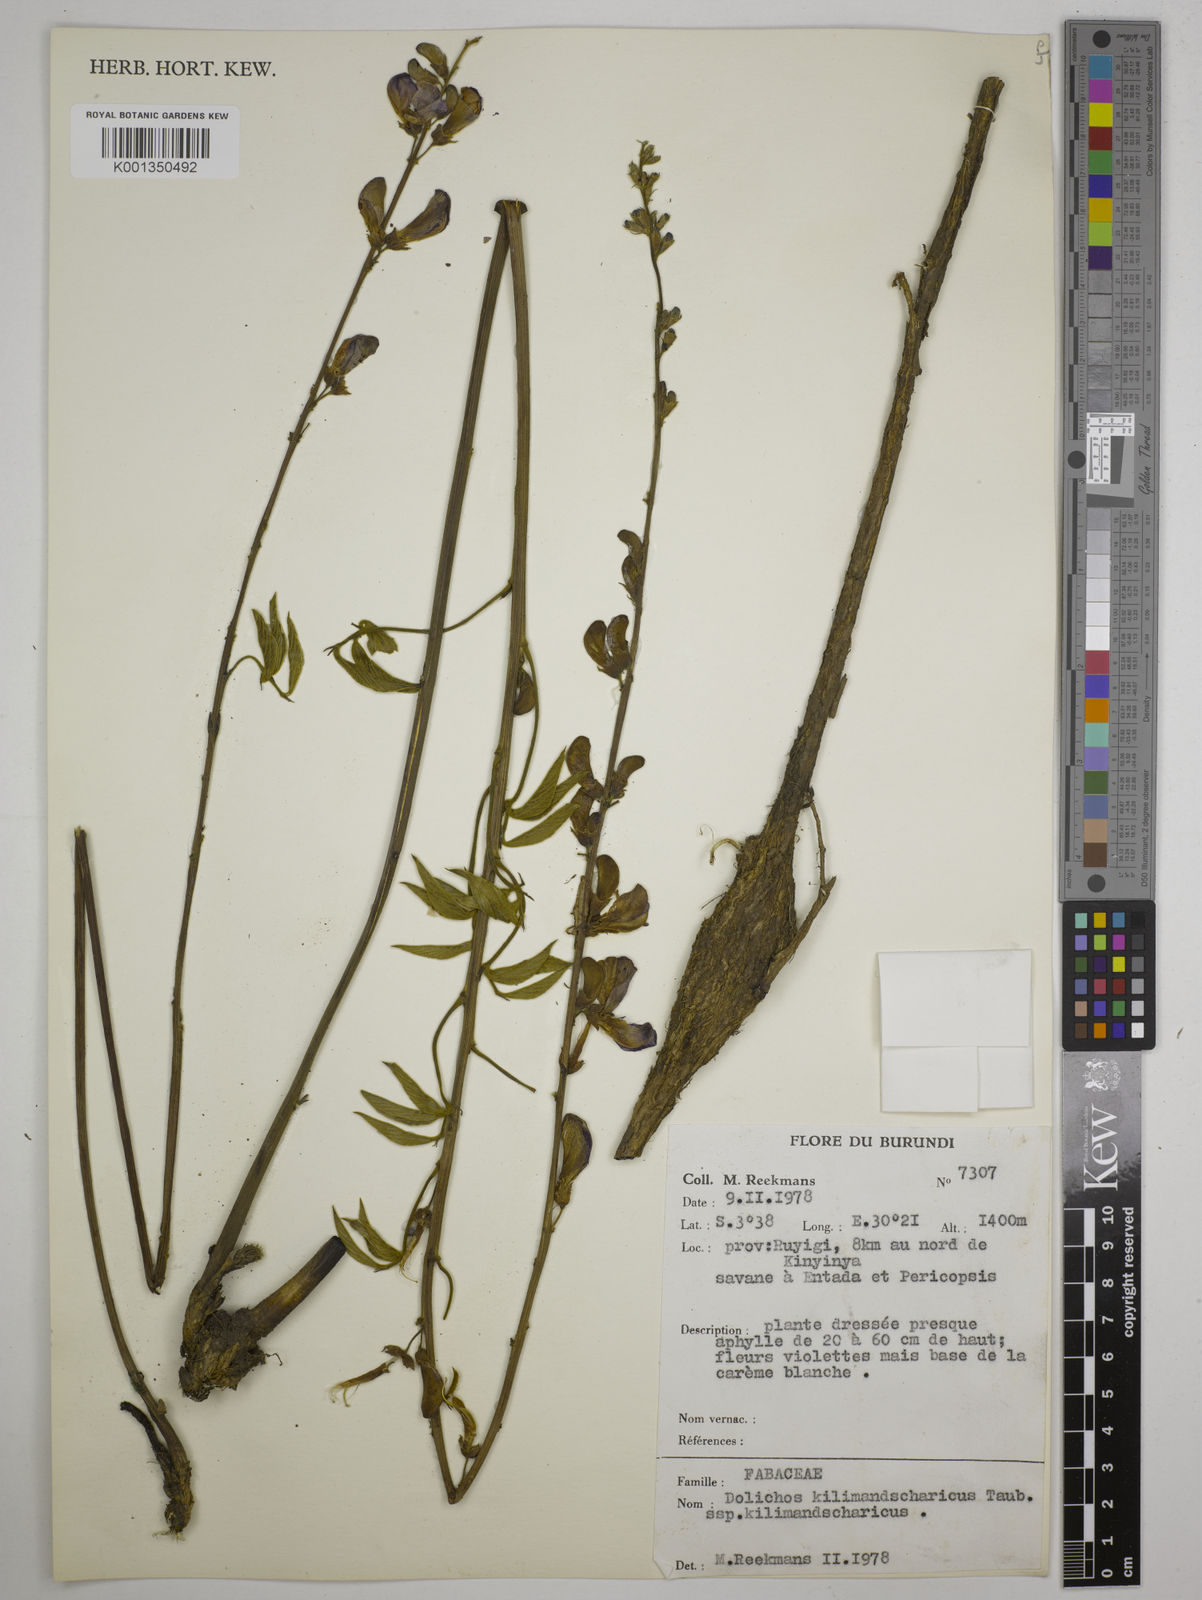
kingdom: Plantae
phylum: Tracheophyta
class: Magnoliopsida
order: Fabales
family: Fabaceae
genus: Dolichos
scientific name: Dolichos kilimandscharicus
